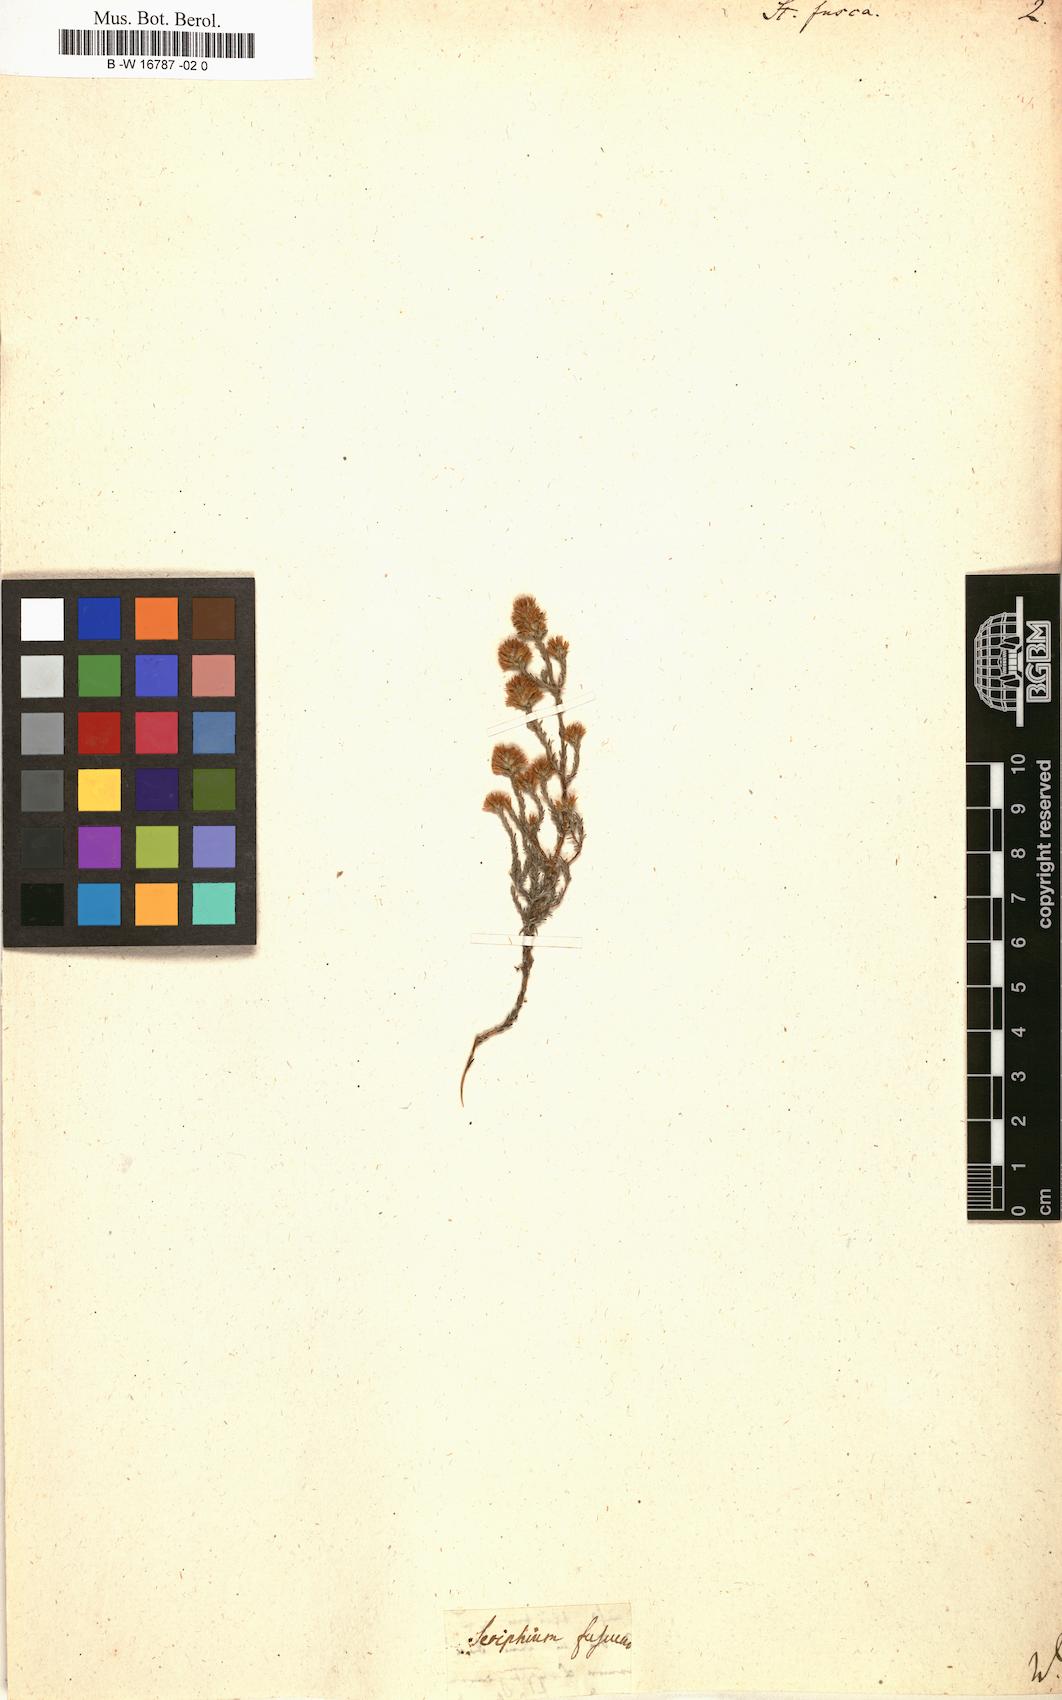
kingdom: Plantae
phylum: Tracheophyta
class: Magnoliopsida
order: Asterales
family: Asteraceae
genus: Stoebe
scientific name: Stoebe fusca
